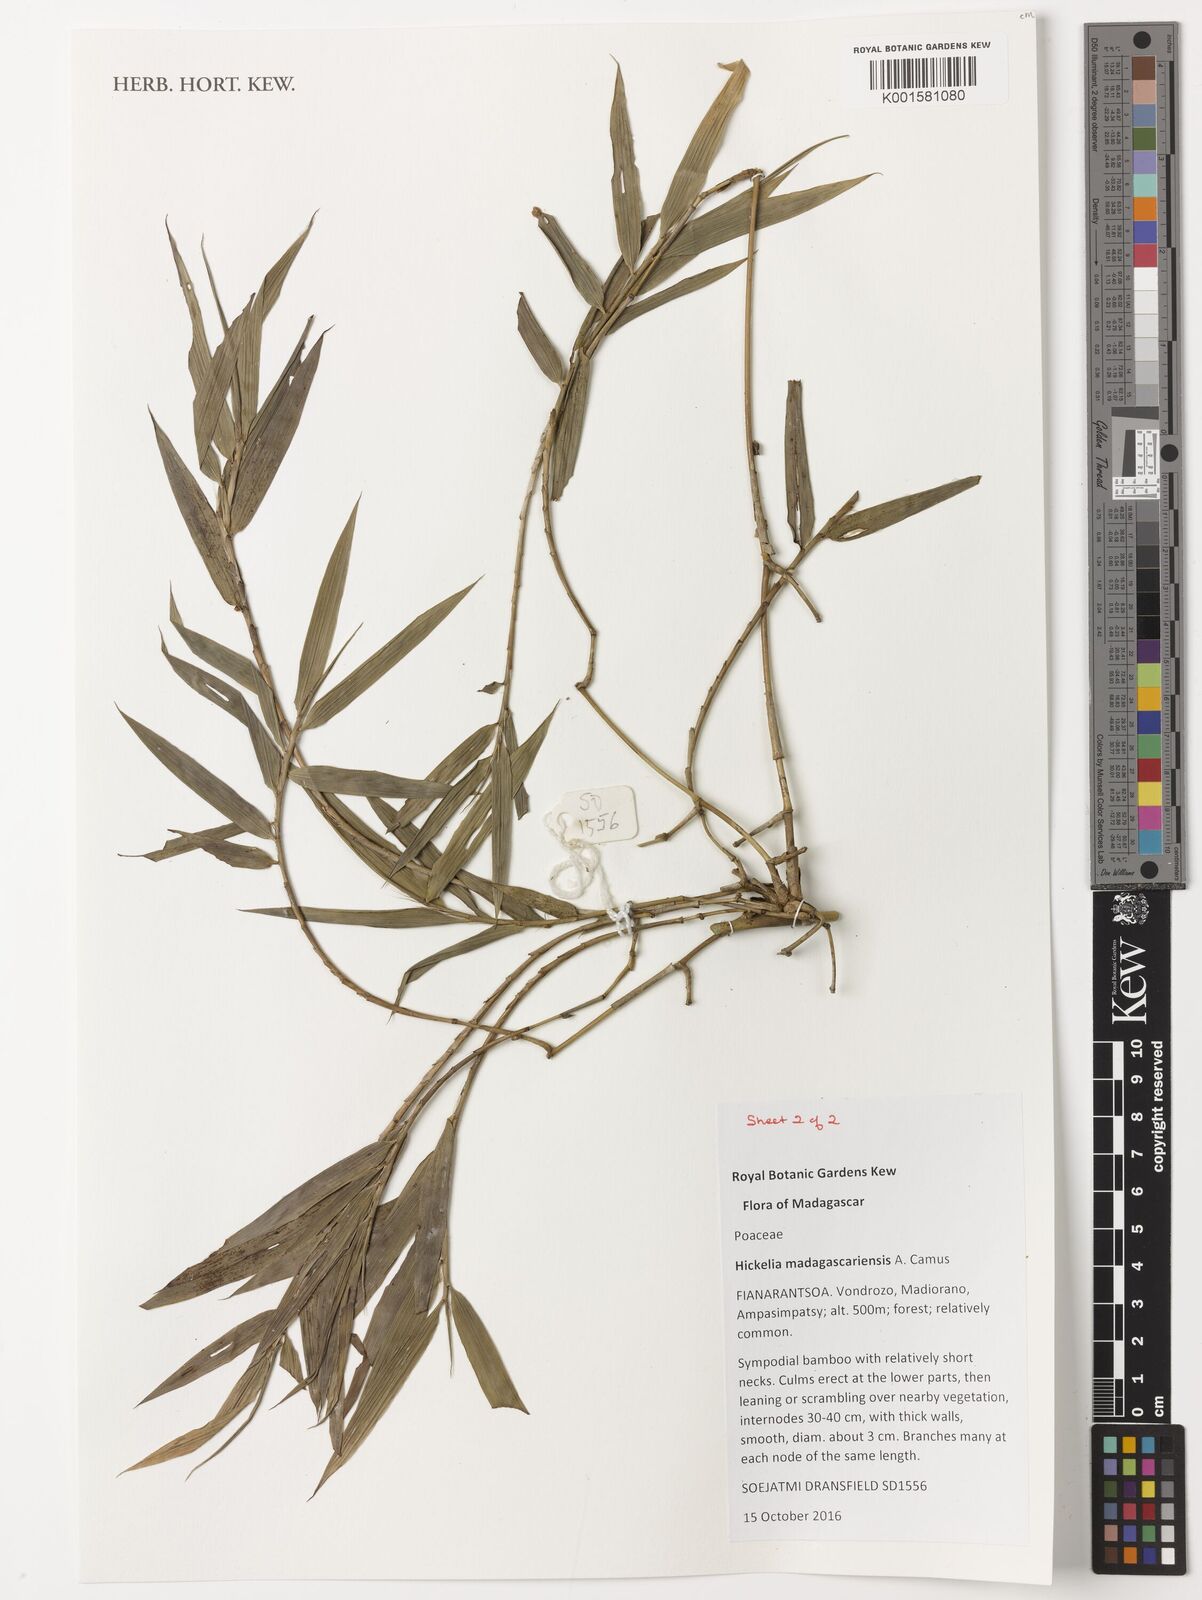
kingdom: Plantae
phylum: Tracheophyta
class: Liliopsida
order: Poales
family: Poaceae
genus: Hickelia
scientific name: Hickelia madagascariensis
